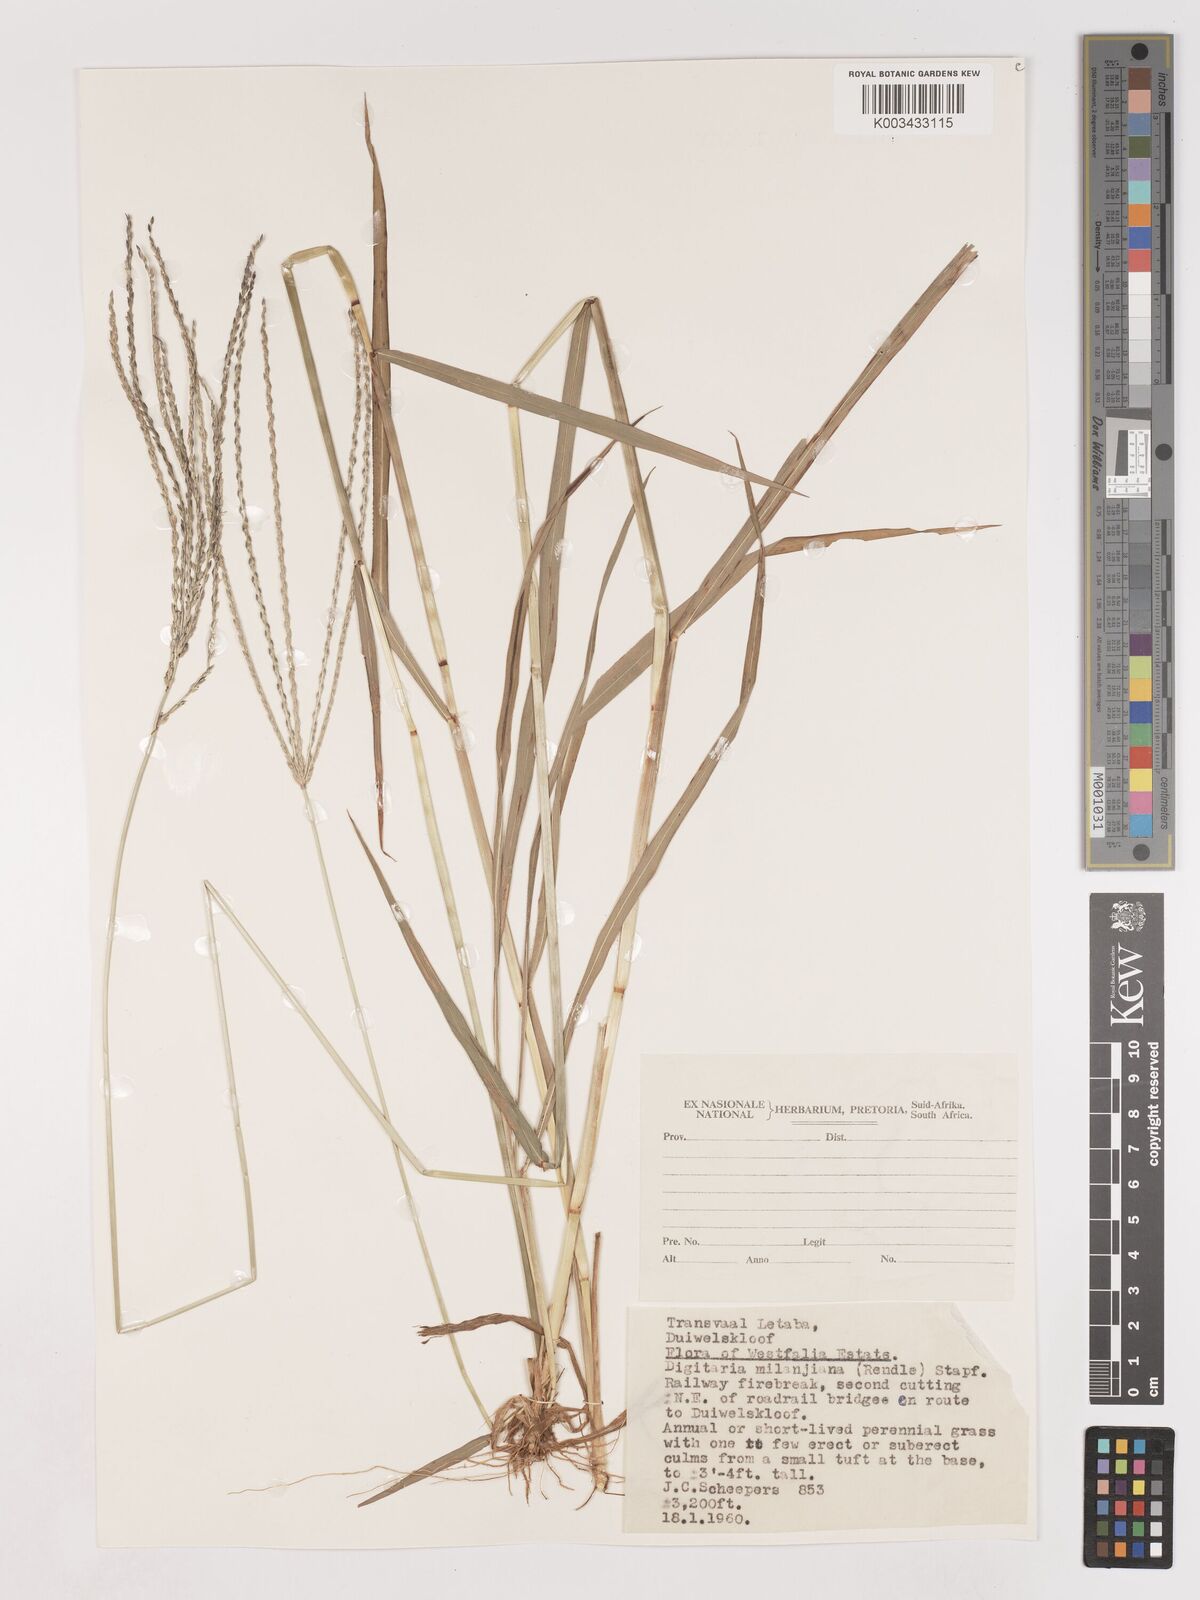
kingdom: Plantae
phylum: Tracheophyta
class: Liliopsida
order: Poales
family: Poaceae
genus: Digitaria
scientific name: Digitaria milanjiana
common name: Madagascar crabgrass
